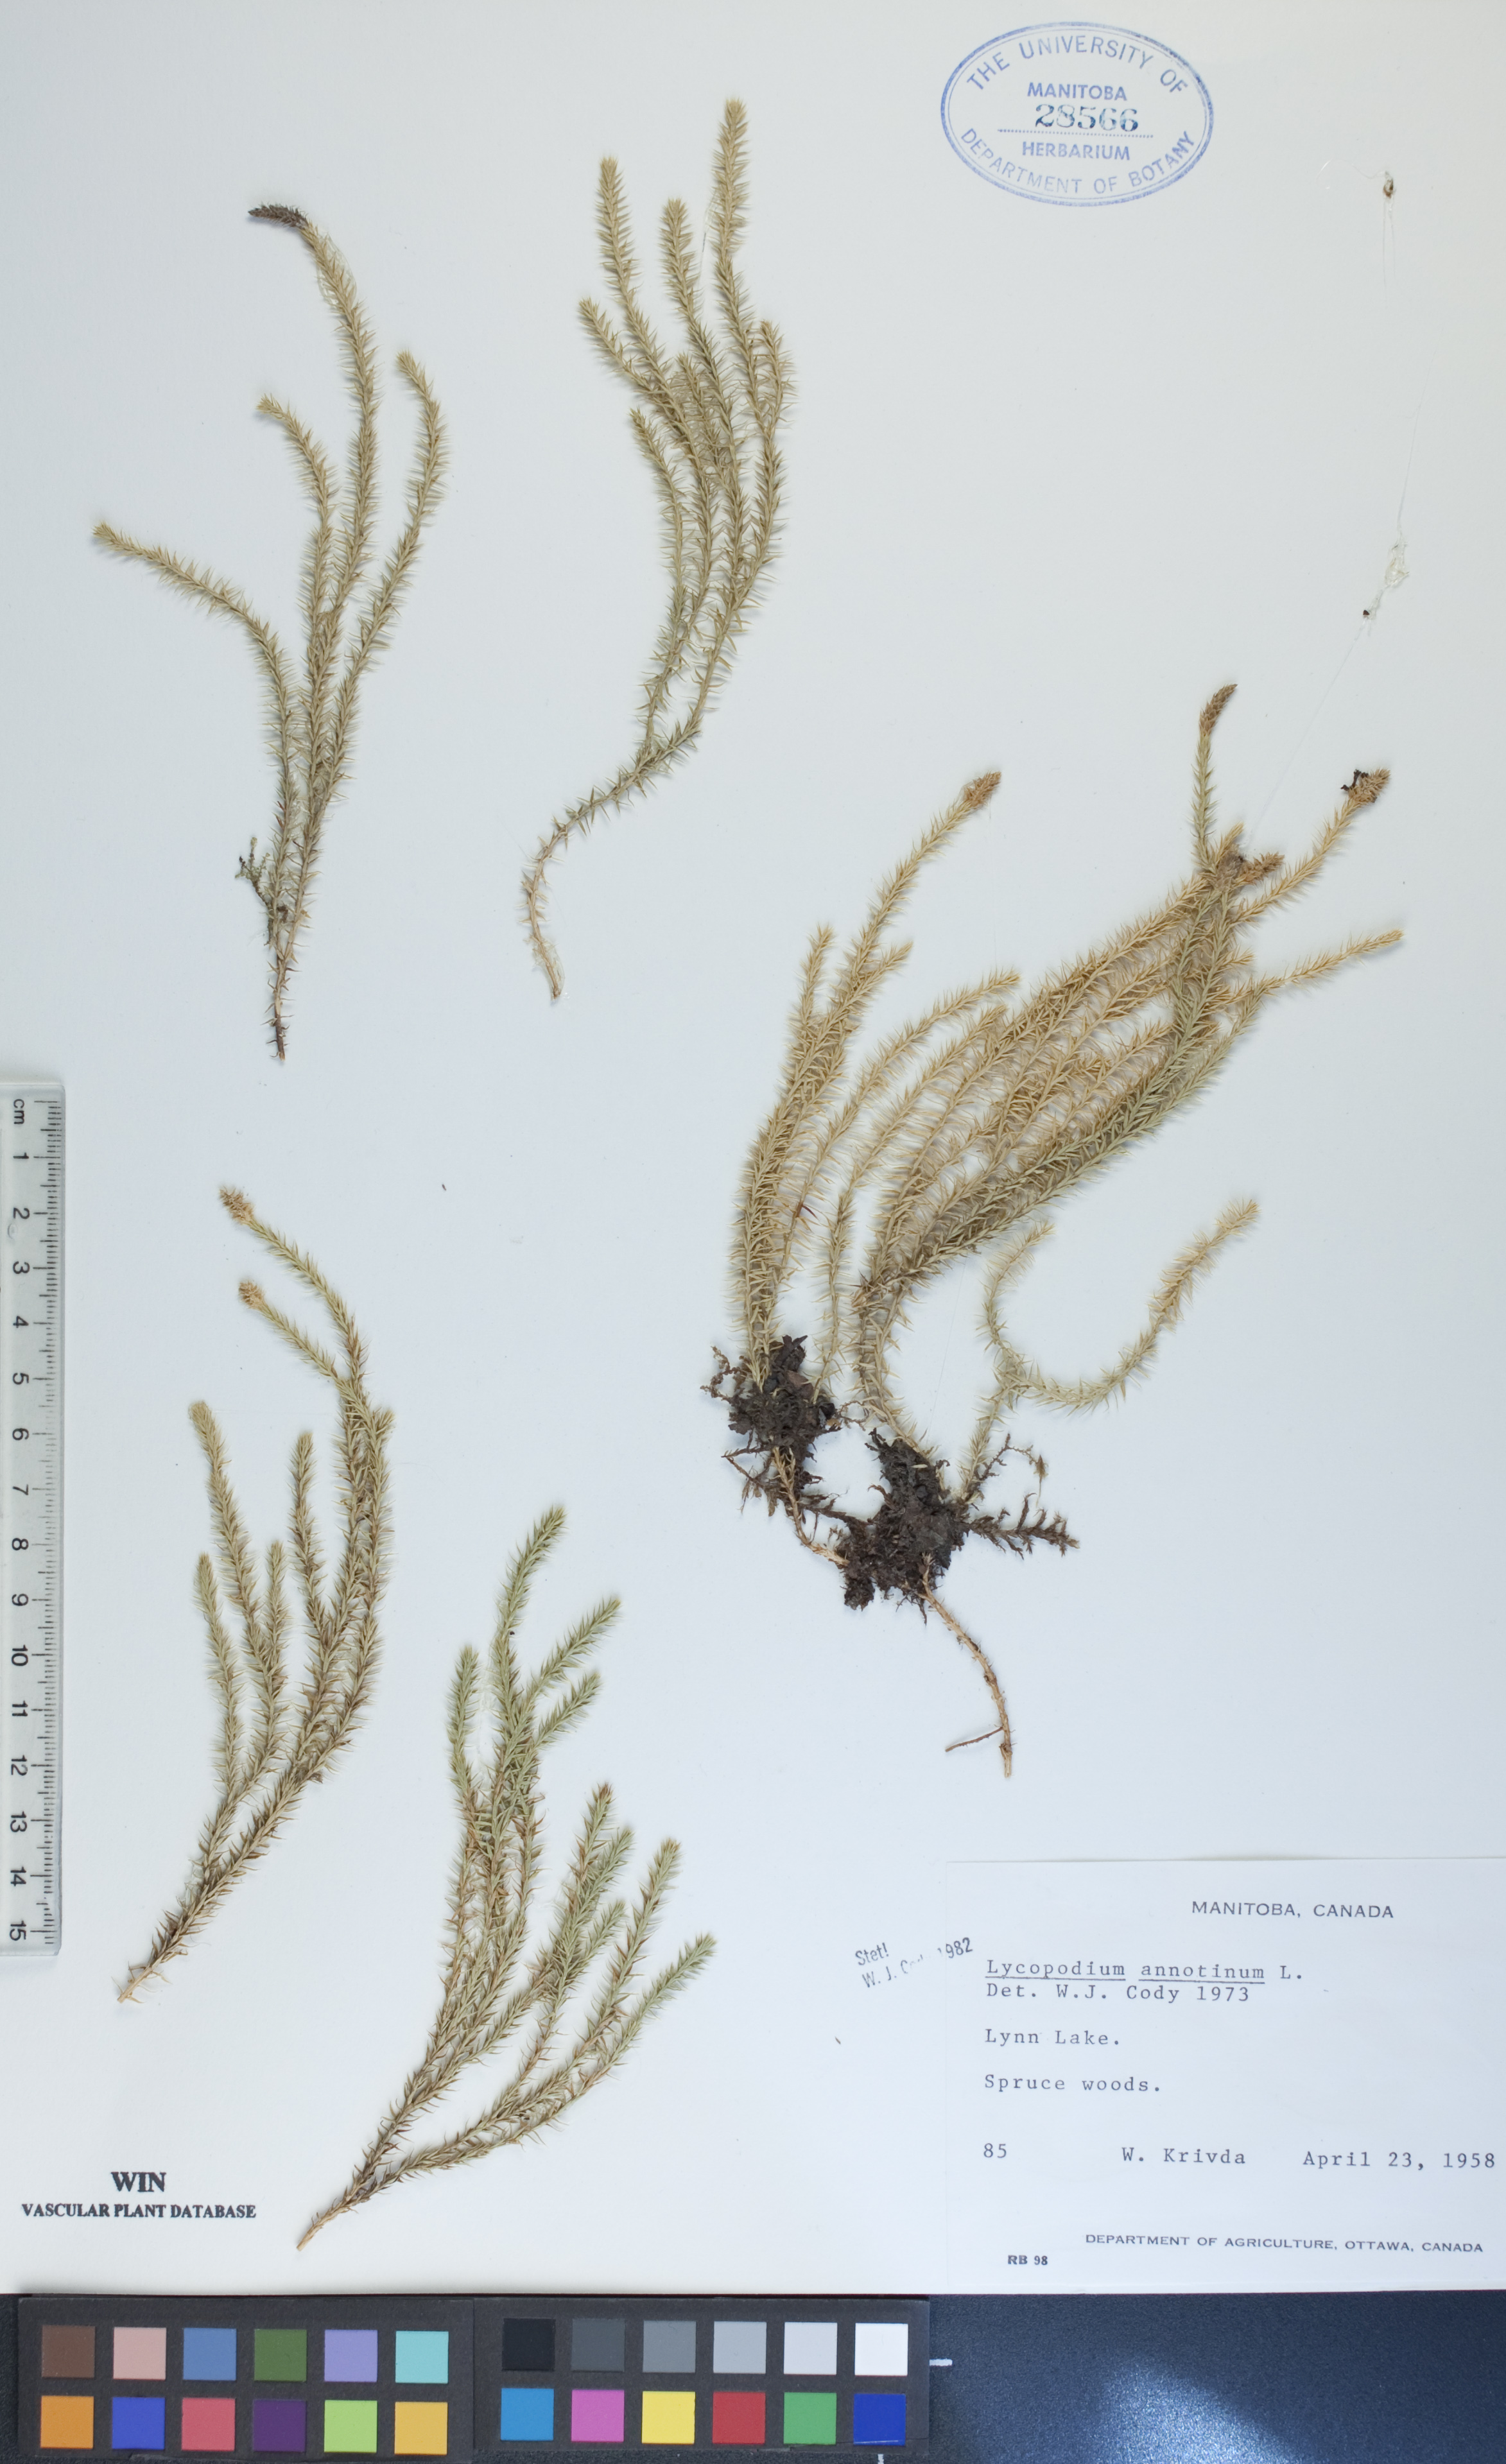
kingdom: Plantae
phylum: Tracheophyta
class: Lycopodiopsida
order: Lycopodiales
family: Lycopodiaceae
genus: Spinulum
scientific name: Spinulum annotinum
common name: Interrupted club-moss
